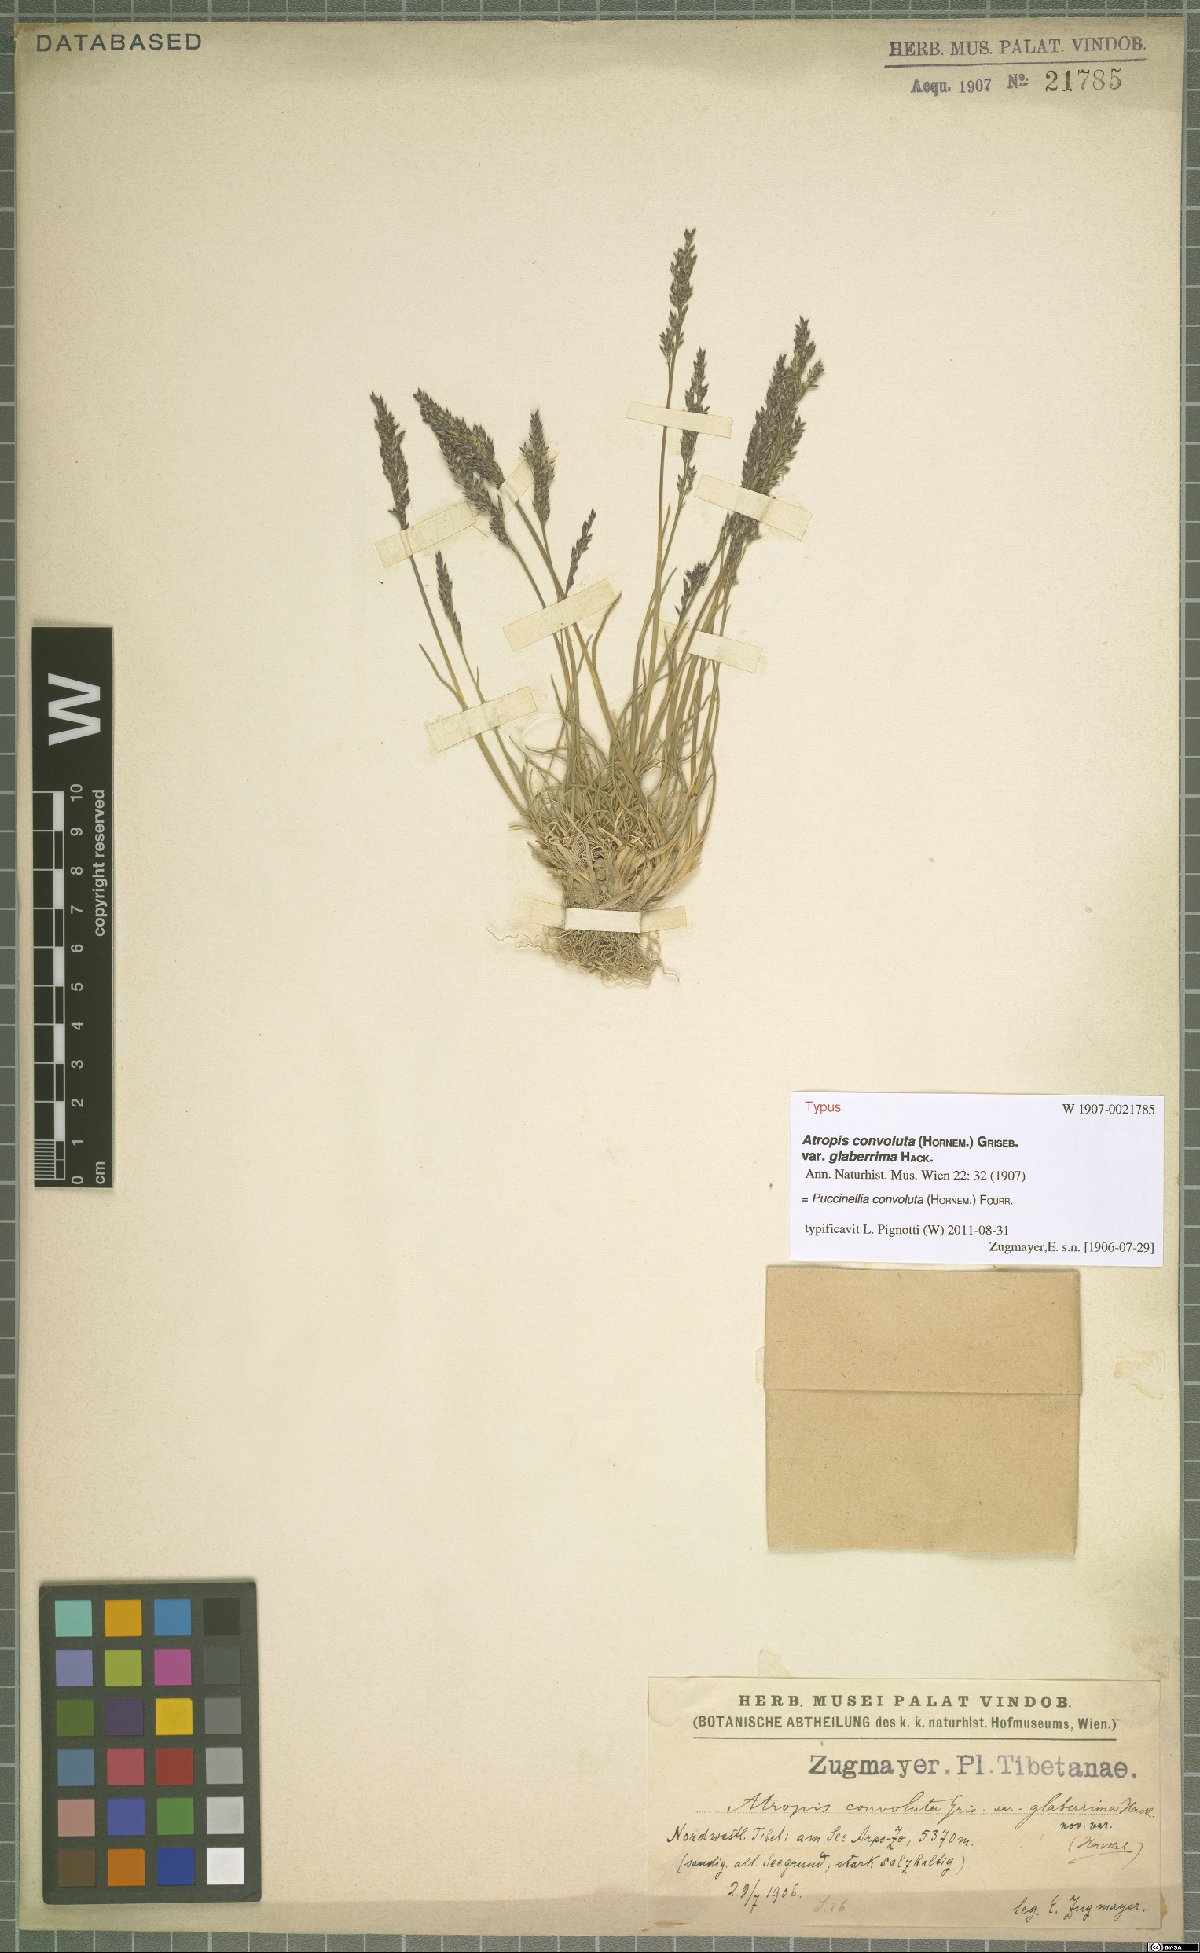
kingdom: Plantae
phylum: Tracheophyta
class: Liliopsida
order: Poales
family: Poaceae
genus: Puccinellia
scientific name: Puccinellia convoluta
